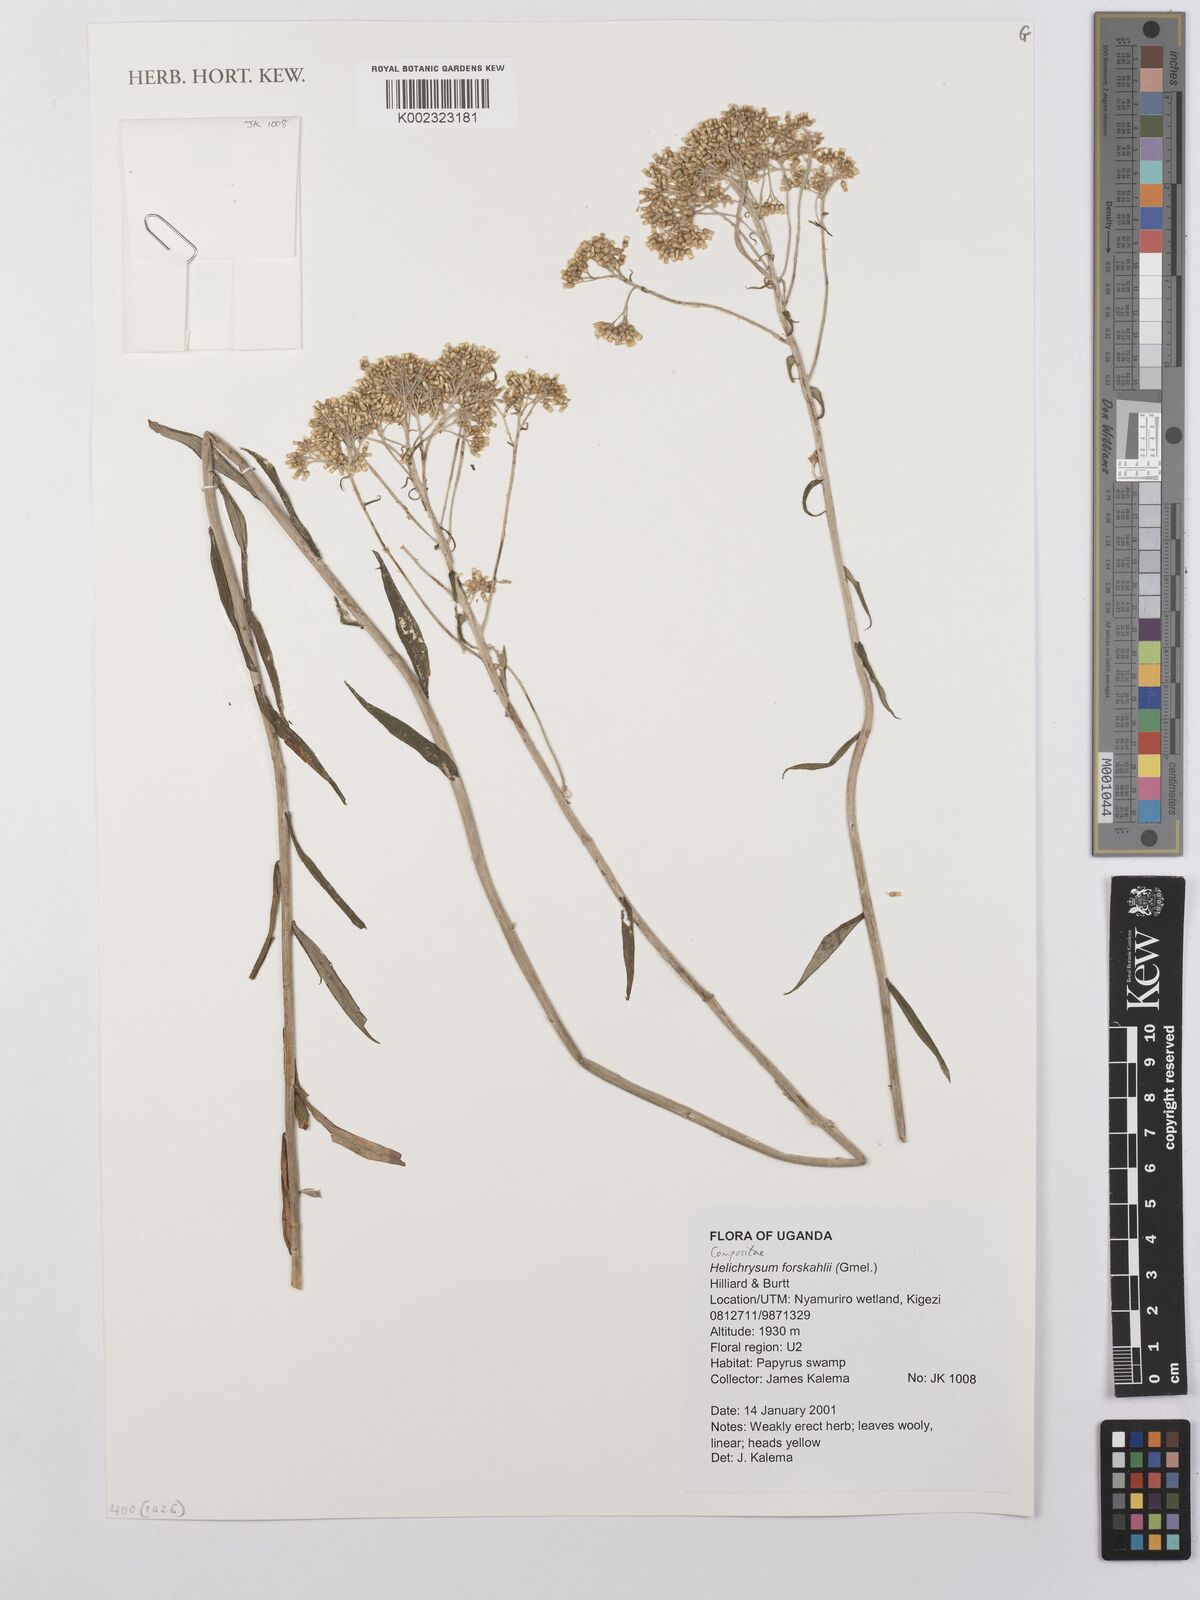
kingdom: Plantae
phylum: Tracheophyta
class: Magnoliopsida
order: Asterales
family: Asteraceae
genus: Helichrysum
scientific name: Helichrysum forskahlii
